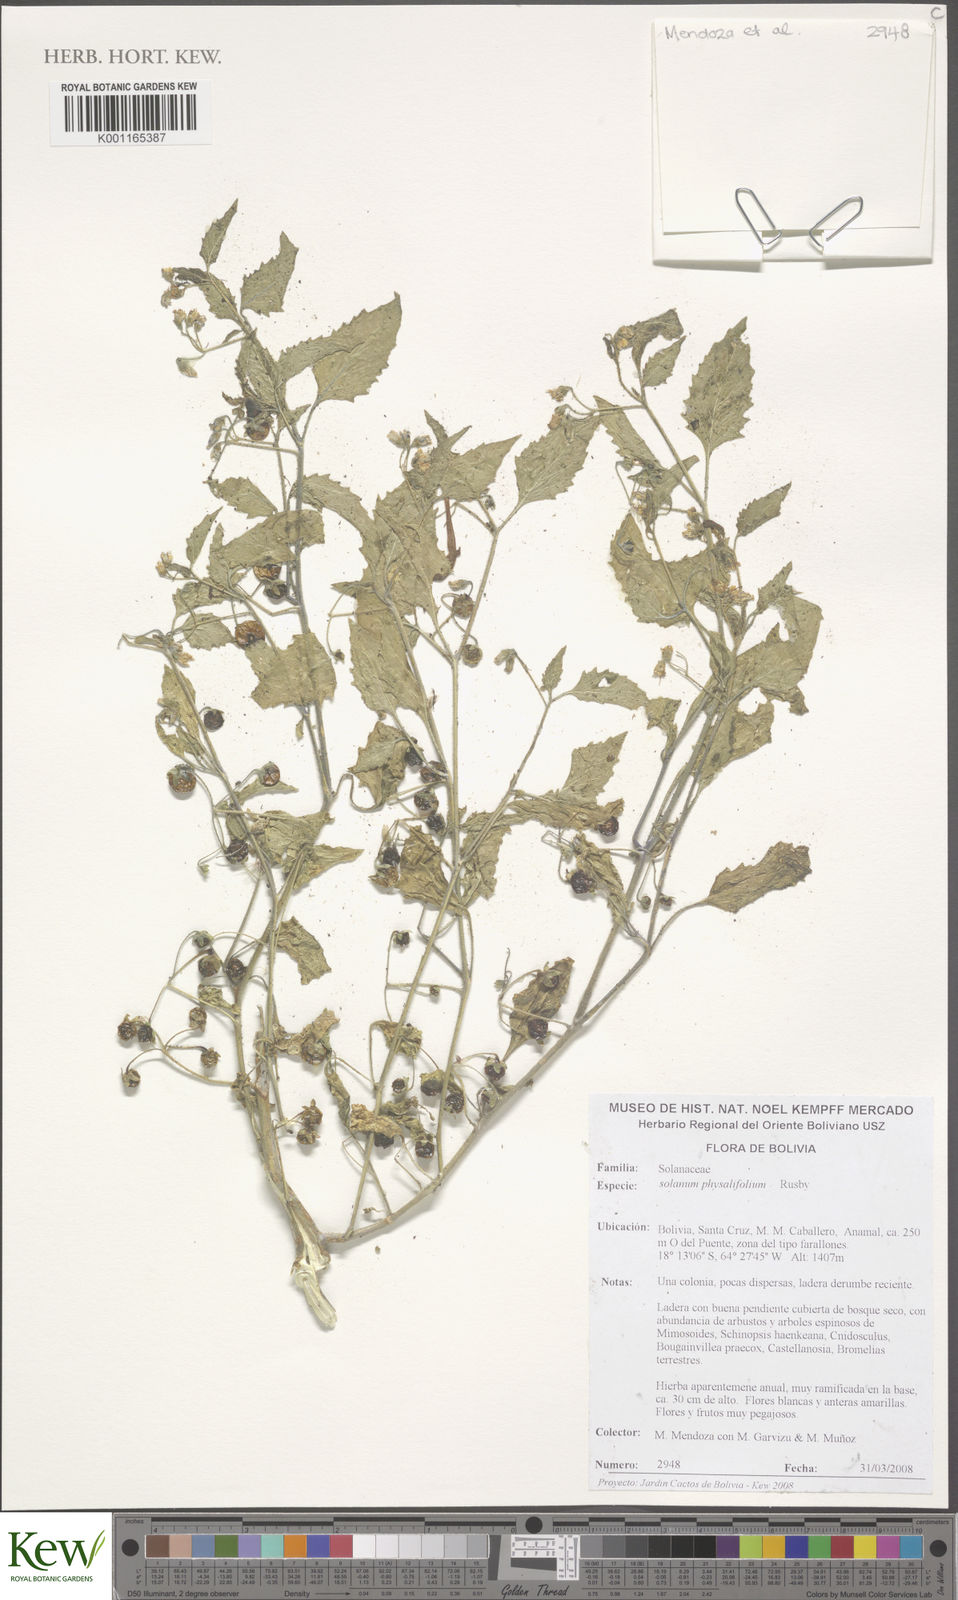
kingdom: Plantae
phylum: Tracheophyta
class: Magnoliopsida
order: Solanales
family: Solanaceae
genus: Solanum
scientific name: Solanum physalifolium
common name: Green nightshade
